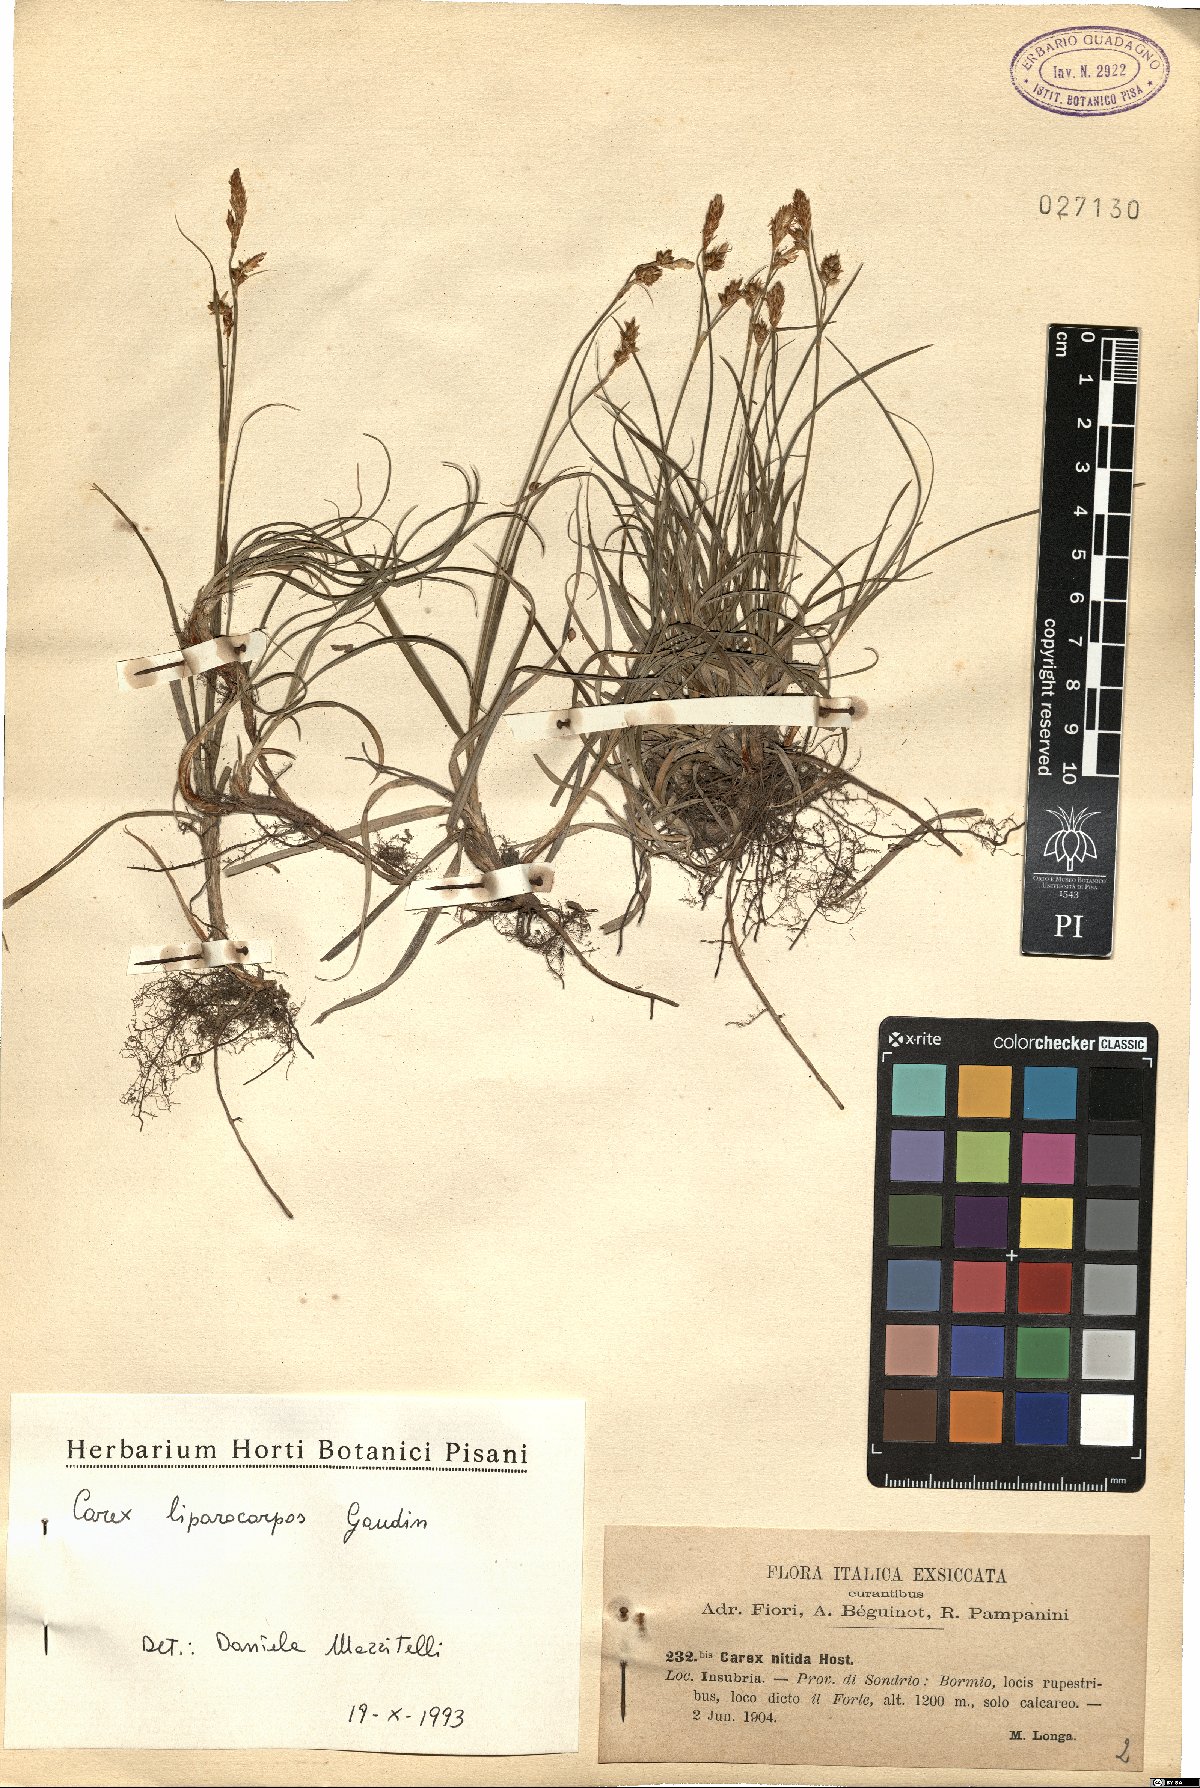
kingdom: Plantae
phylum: Tracheophyta
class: Liliopsida
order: Poales
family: Cyperaceae
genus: Carex
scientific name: Carex liparocarpos
